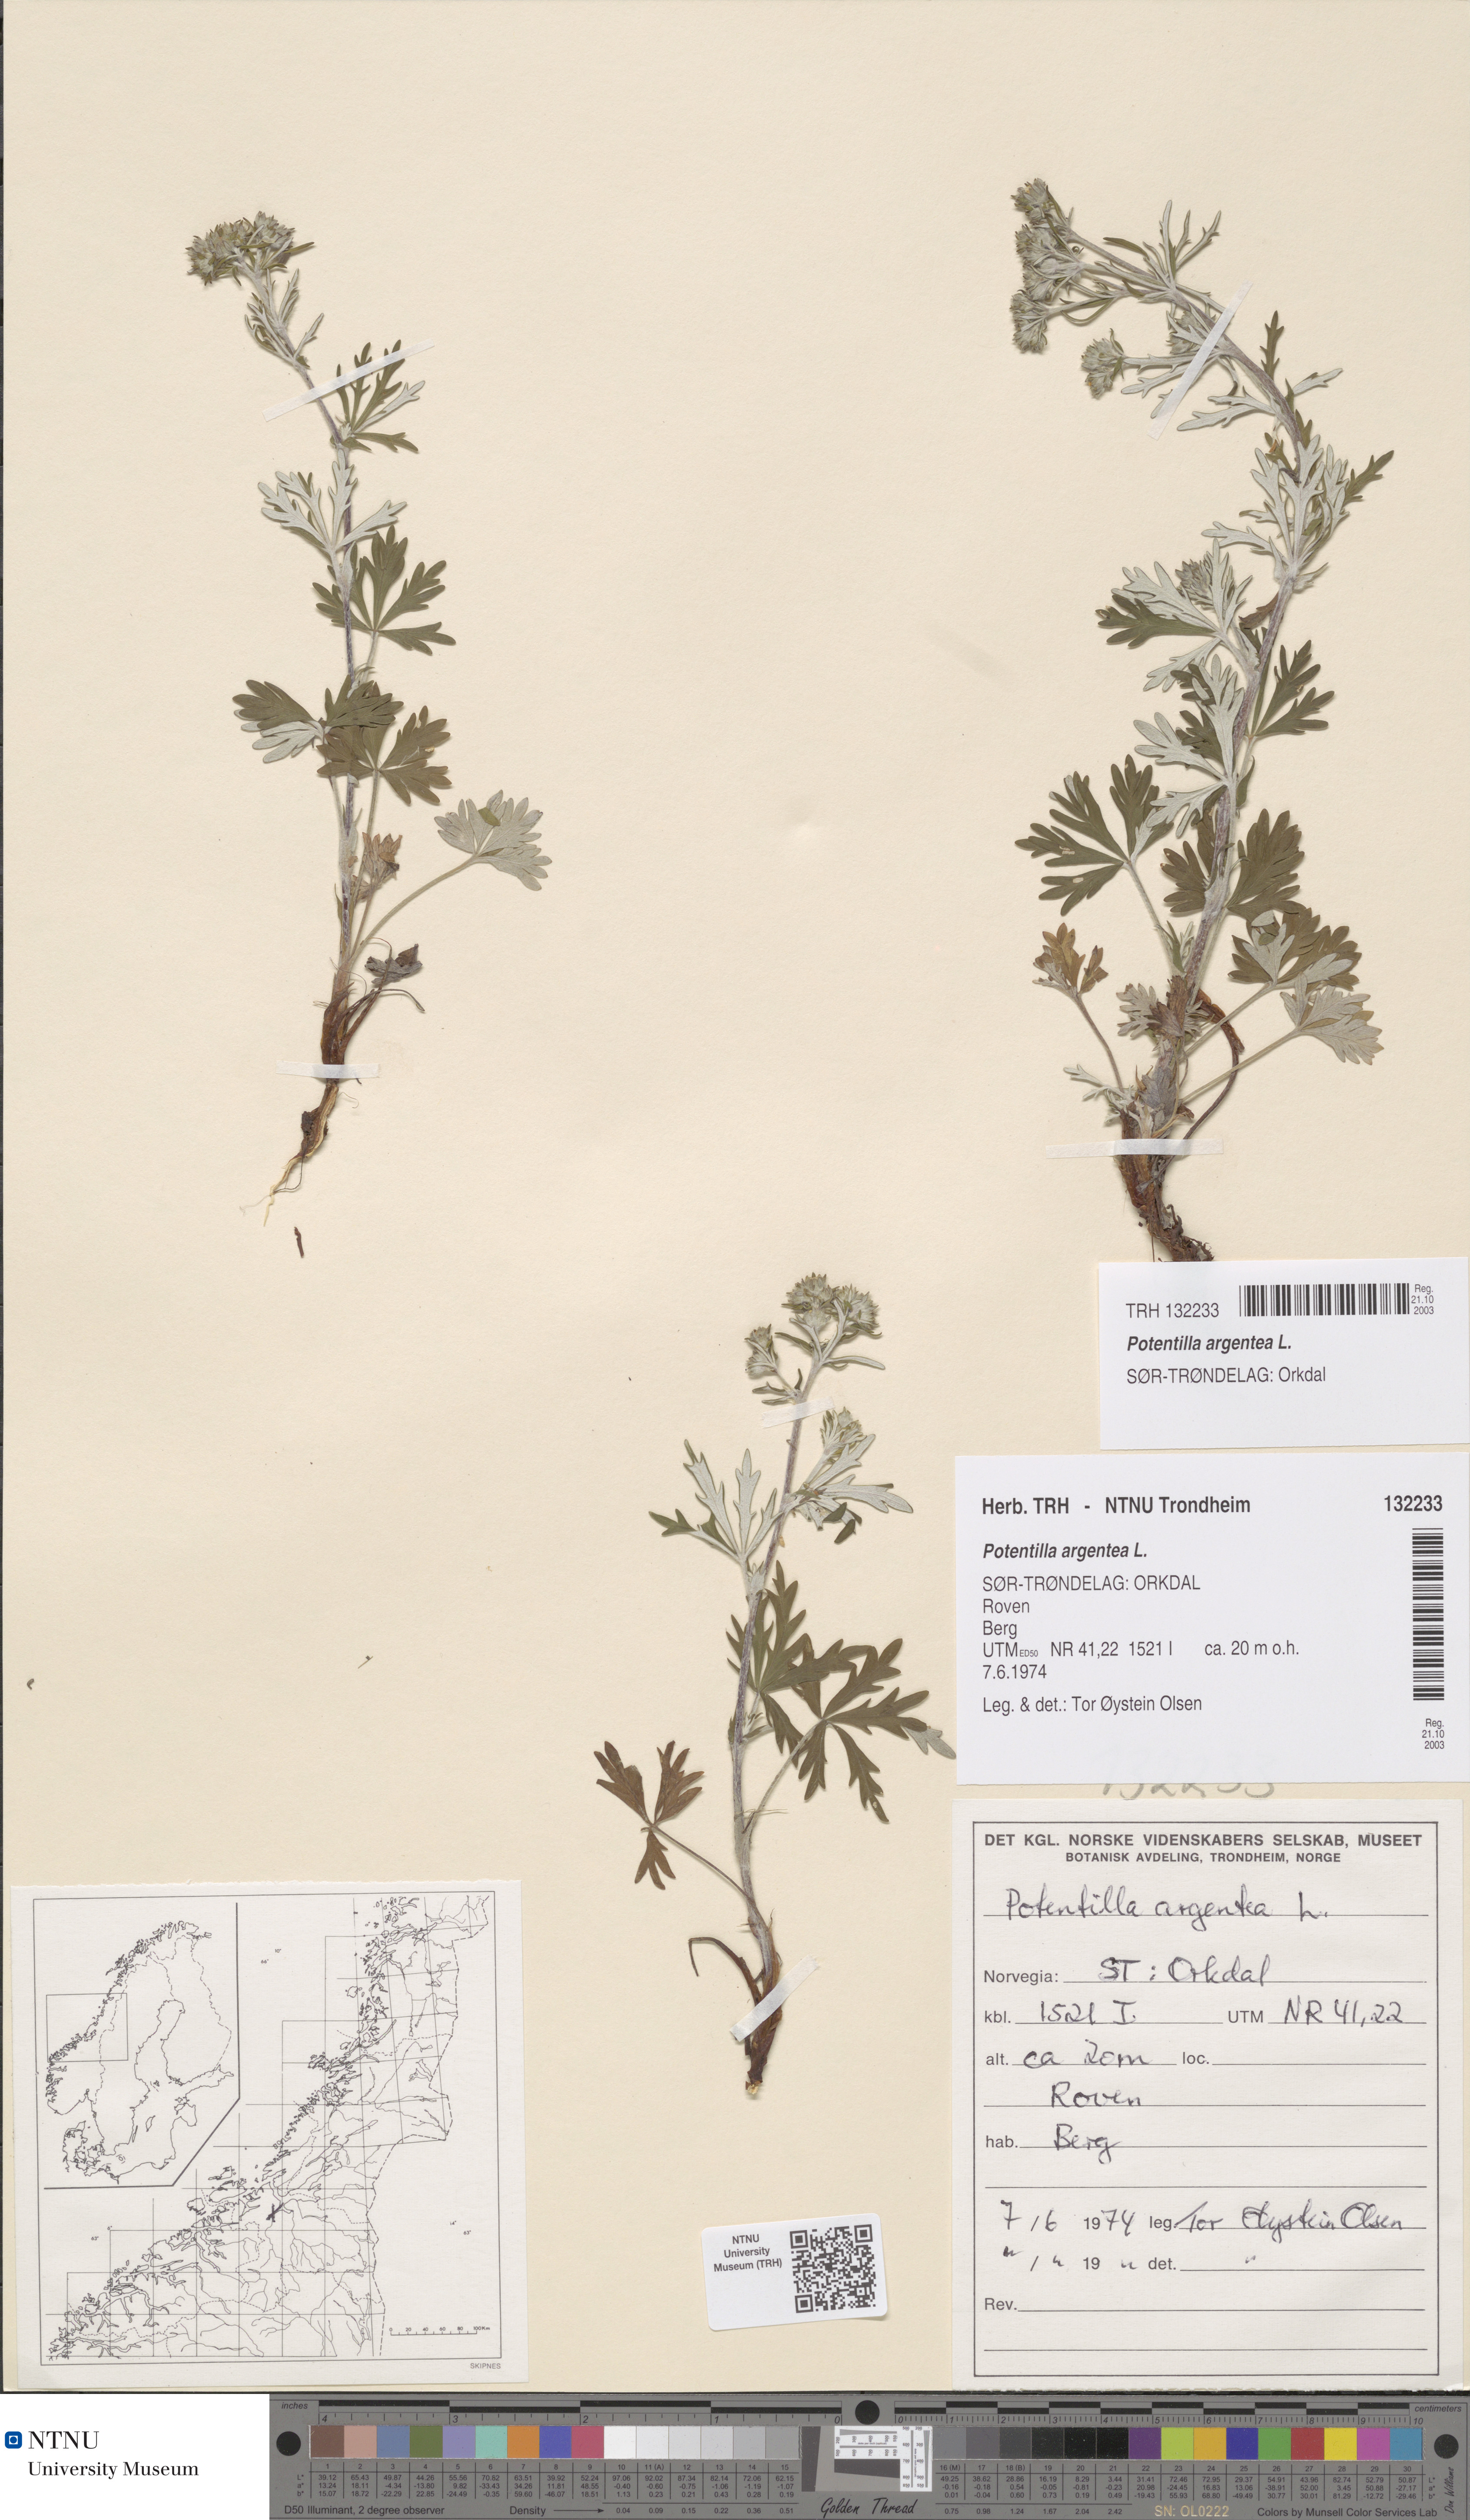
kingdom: Plantae
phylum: Tracheophyta
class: Magnoliopsida
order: Rosales
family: Rosaceae
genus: Potentilla
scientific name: Potentilla argentea
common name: Hoary cinquefoil
